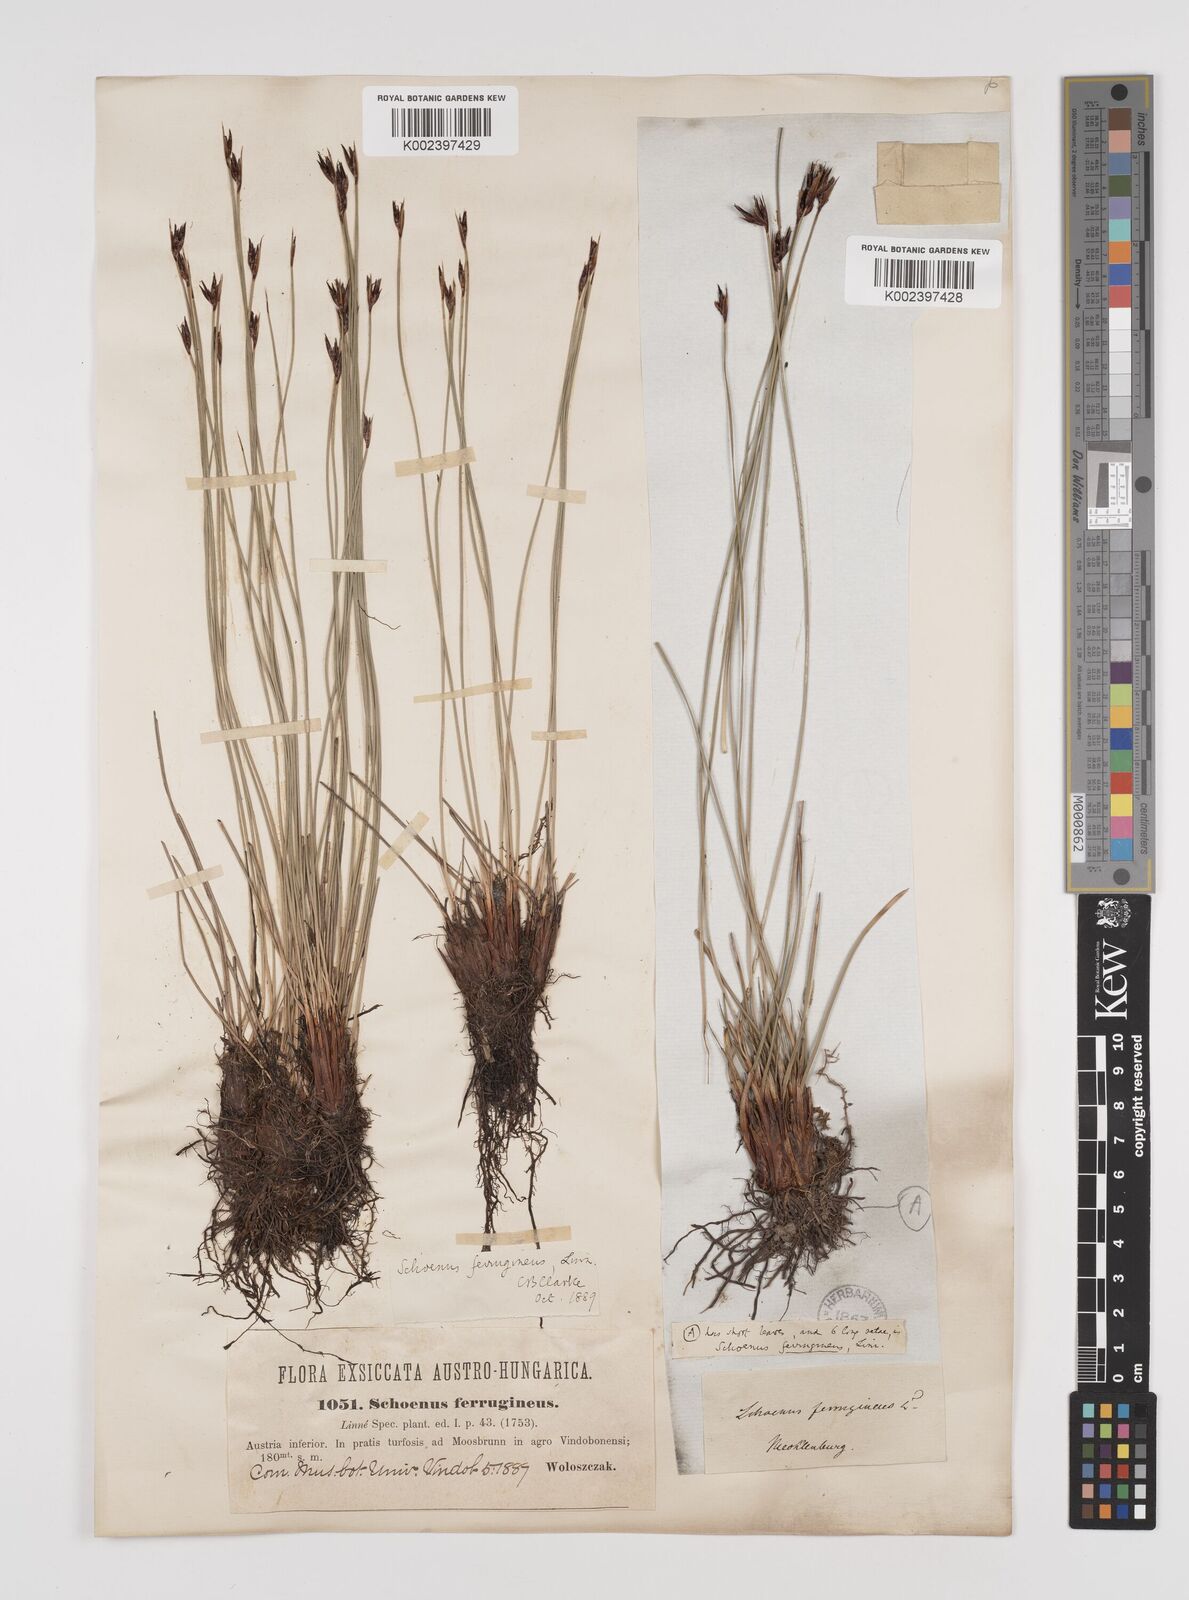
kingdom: Plantae
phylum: Tracheophyta
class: Liliopsida
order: Poales
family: Cyperaceae
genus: Schoenus
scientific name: Schoenus ferrugineus
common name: Brown bog-rush
